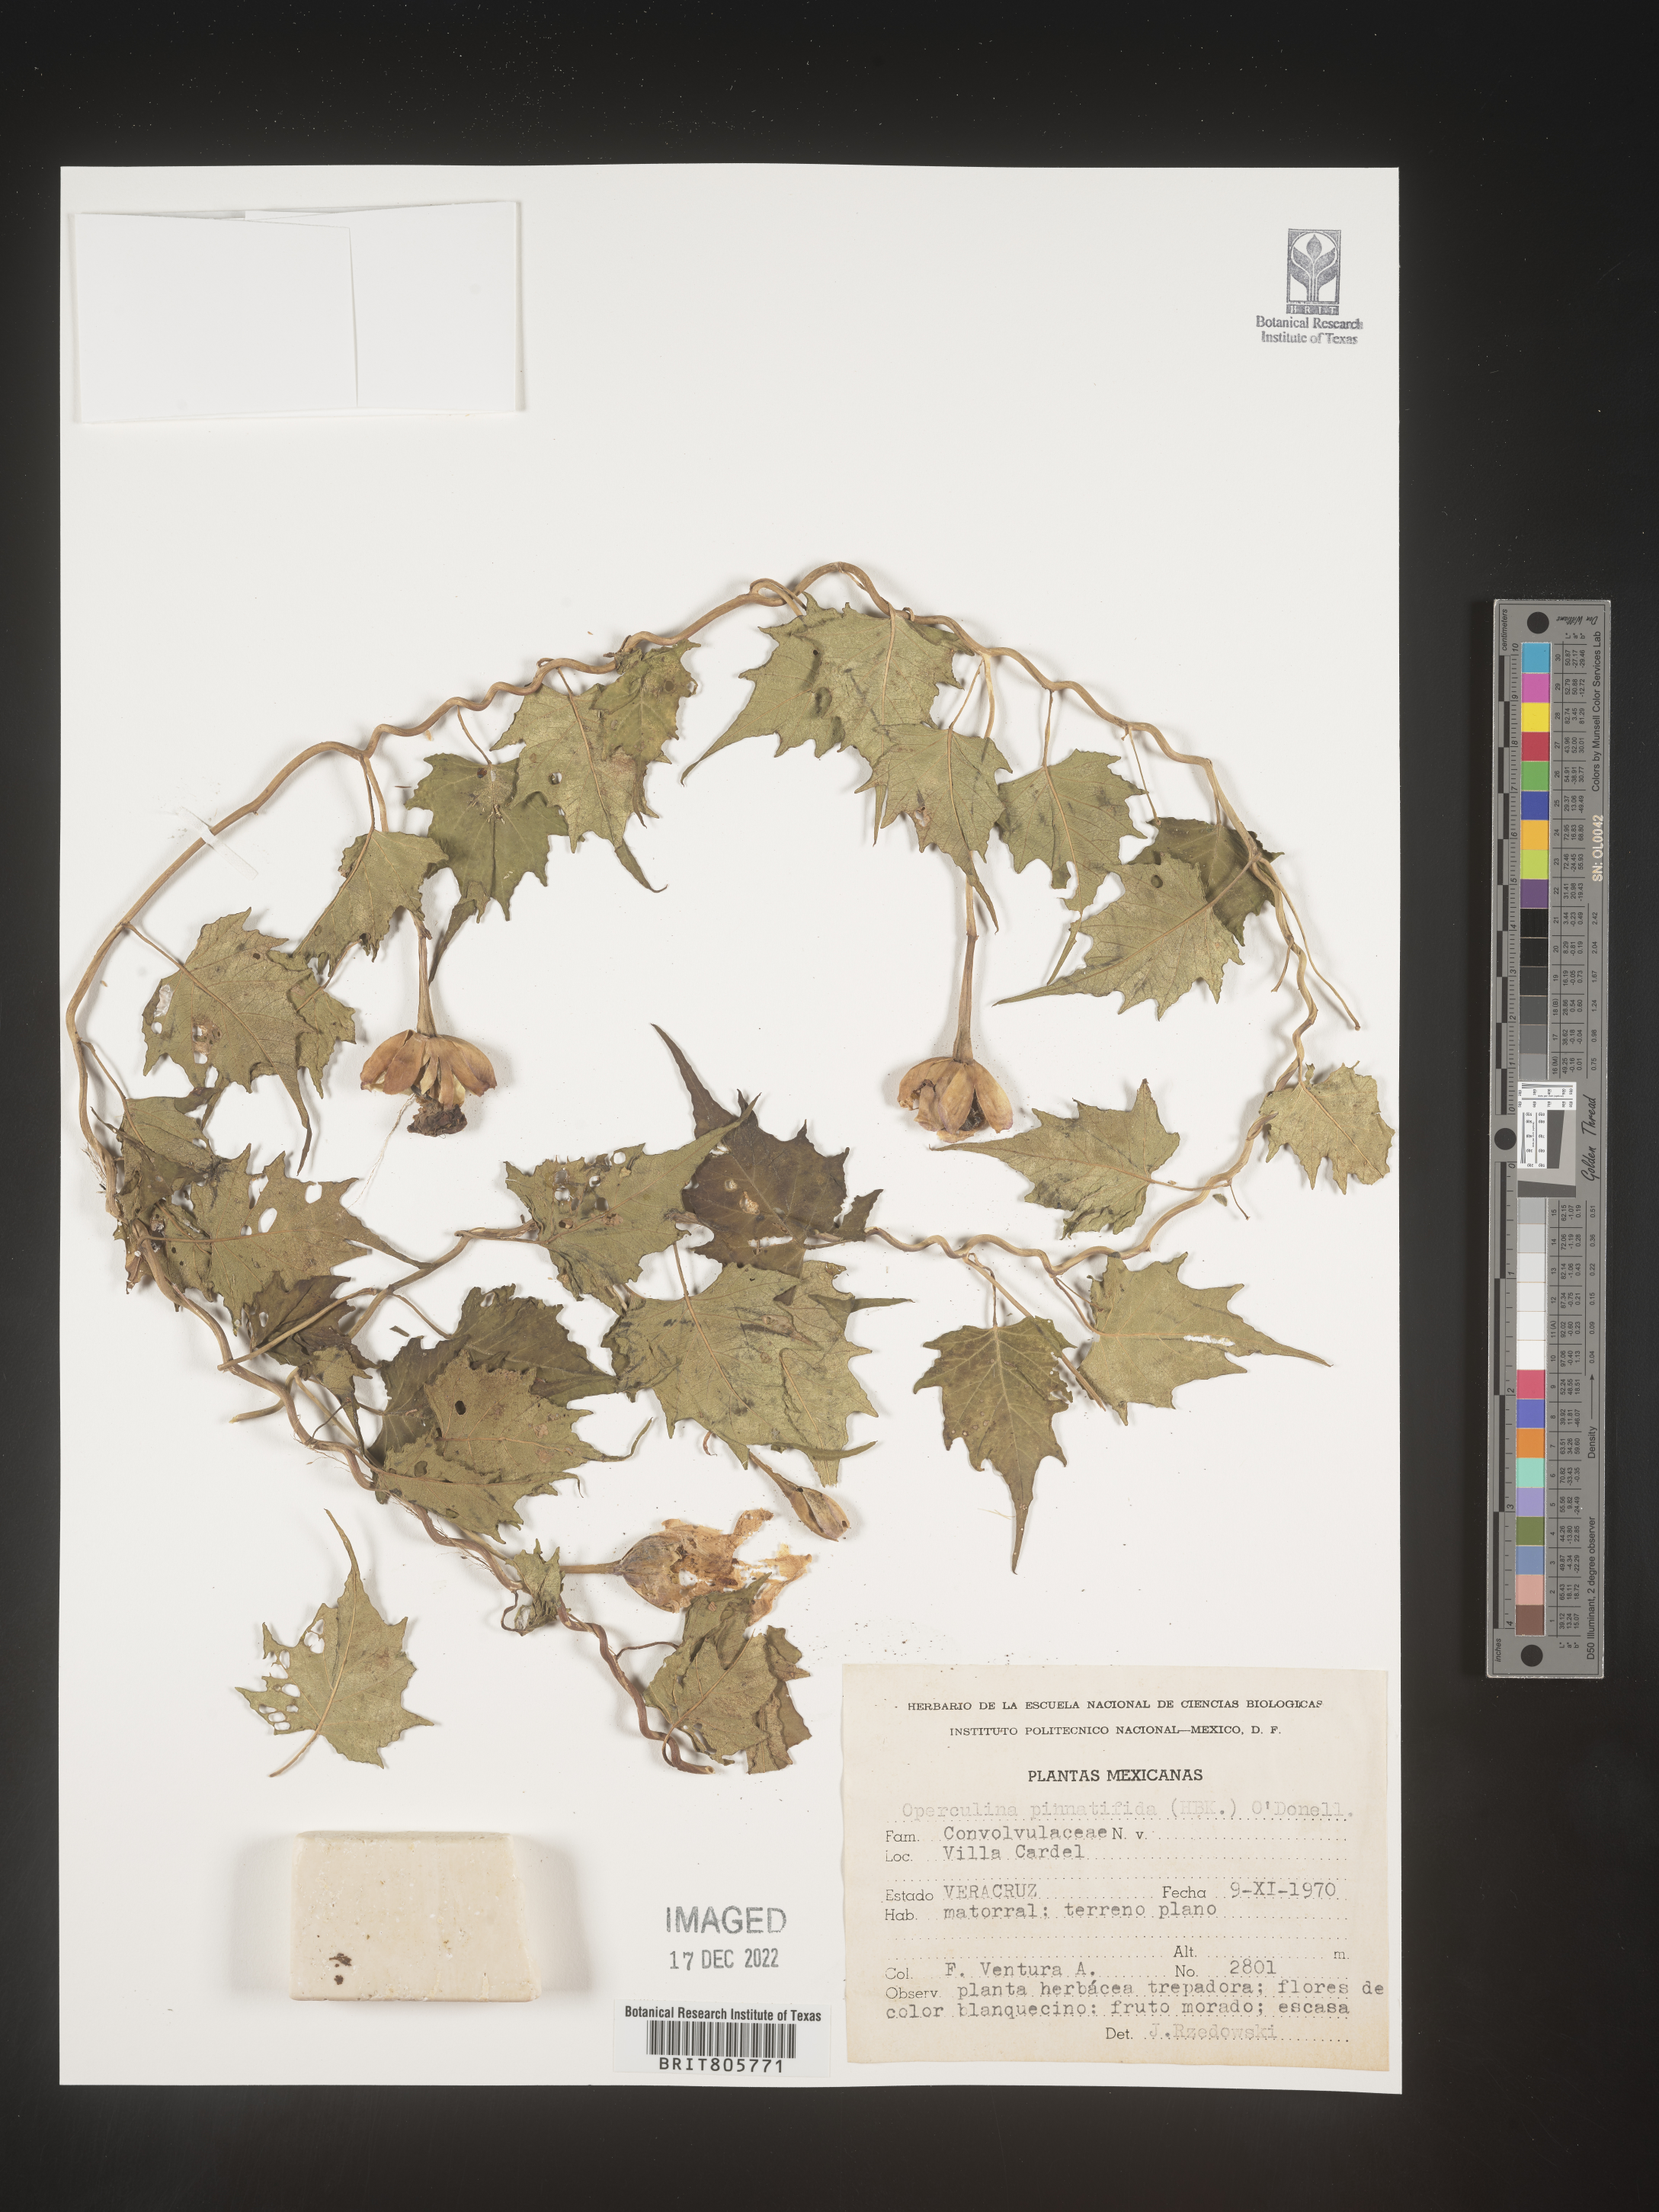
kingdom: Plantae
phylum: Tracheophyta
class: Magnoliopsida
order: Solanales
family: Convolvulaceae
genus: Operculina
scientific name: Operculina
